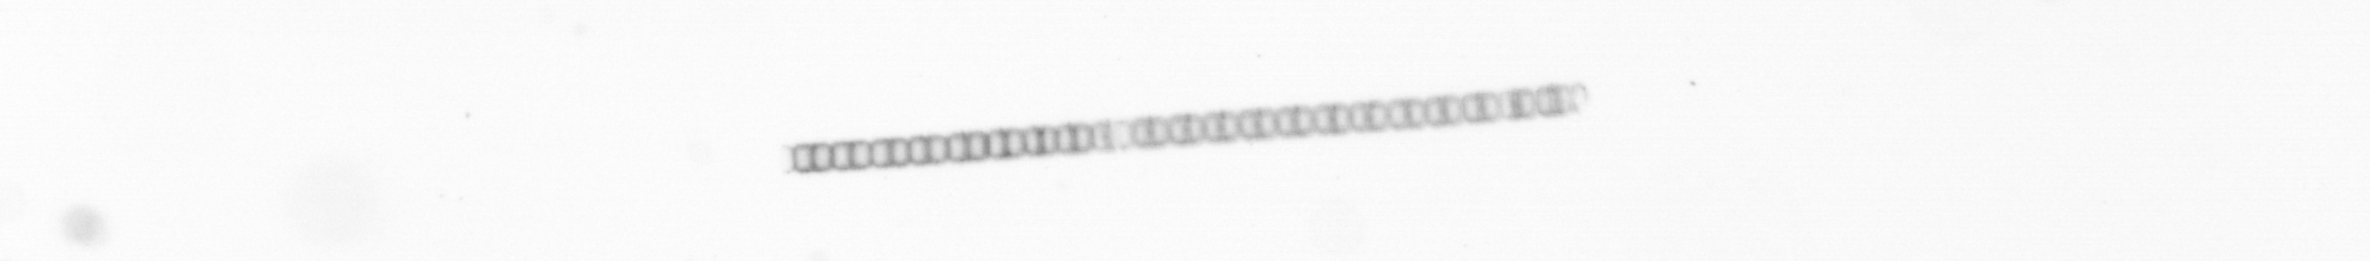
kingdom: Chromista
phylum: Ochrophyta
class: Bacillariophyceae
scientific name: Bacillariophyceae
